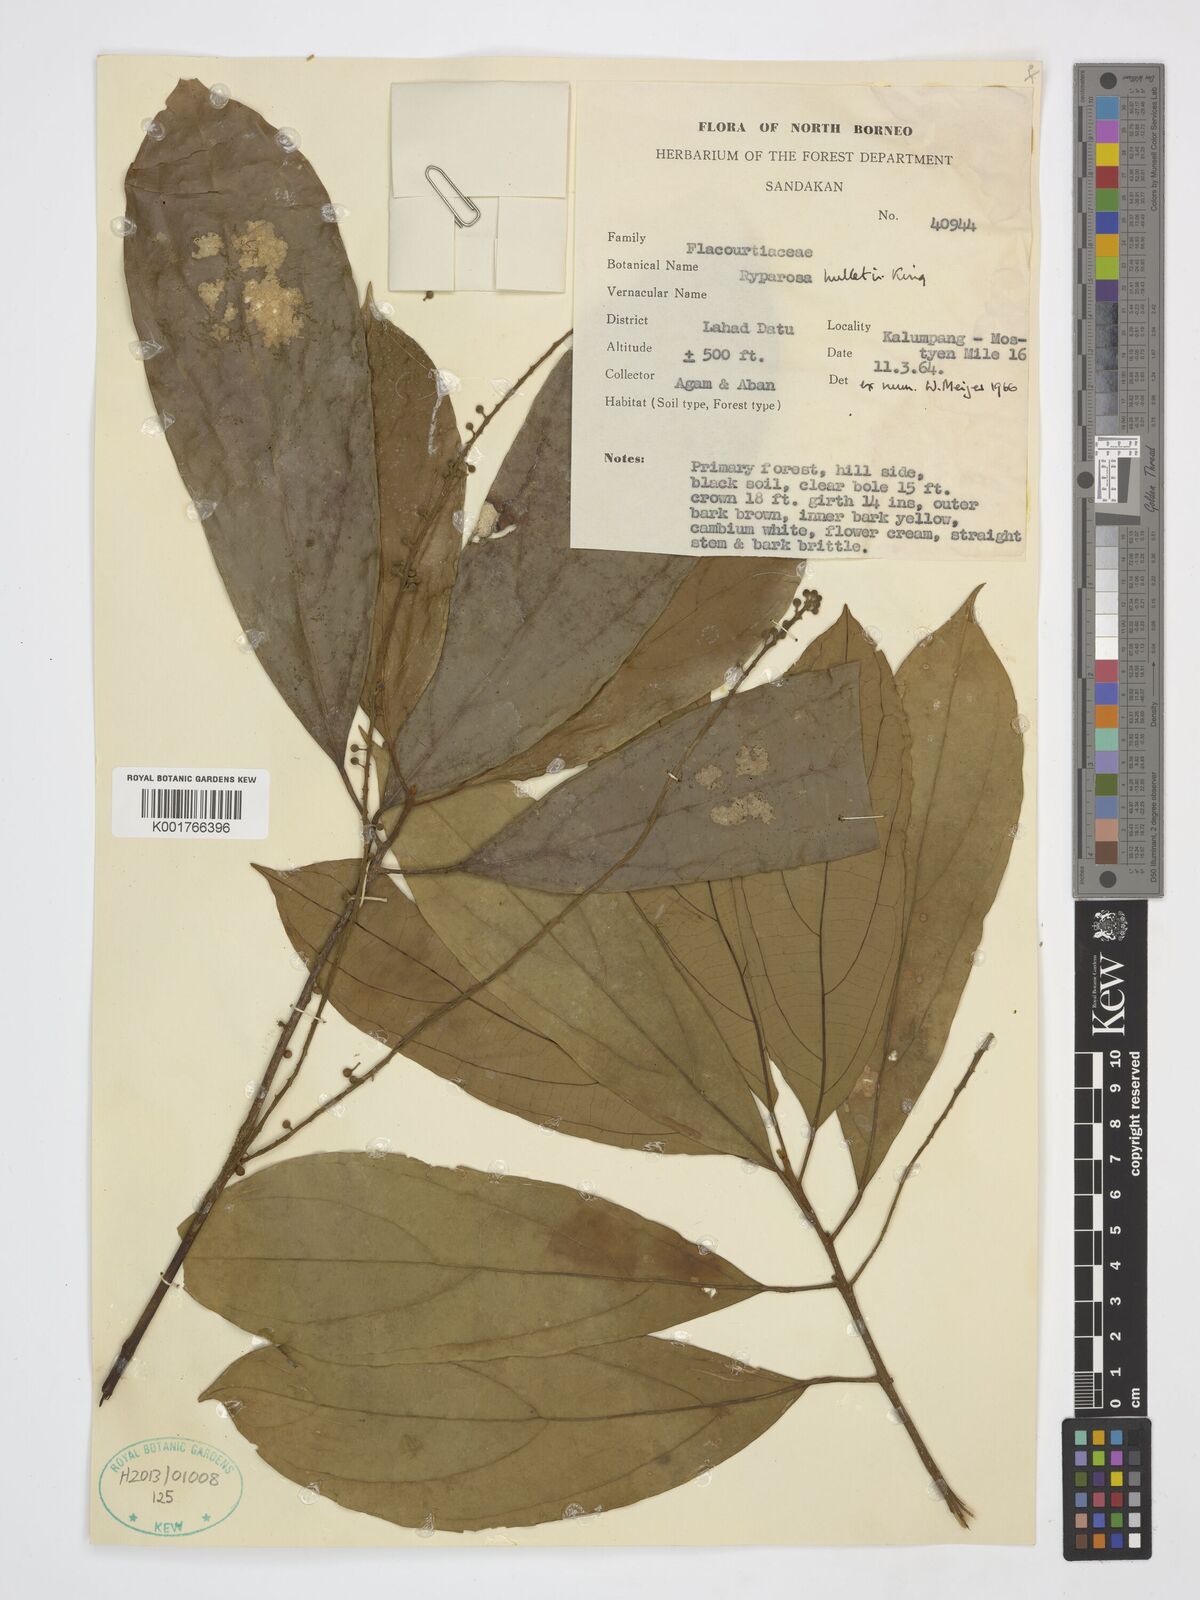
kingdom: Plantae
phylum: Tracheophyta
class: Magnoliopsida
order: Malpighiales
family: Achariaceae
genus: Ryparosa
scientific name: Ryparosa hullettii
